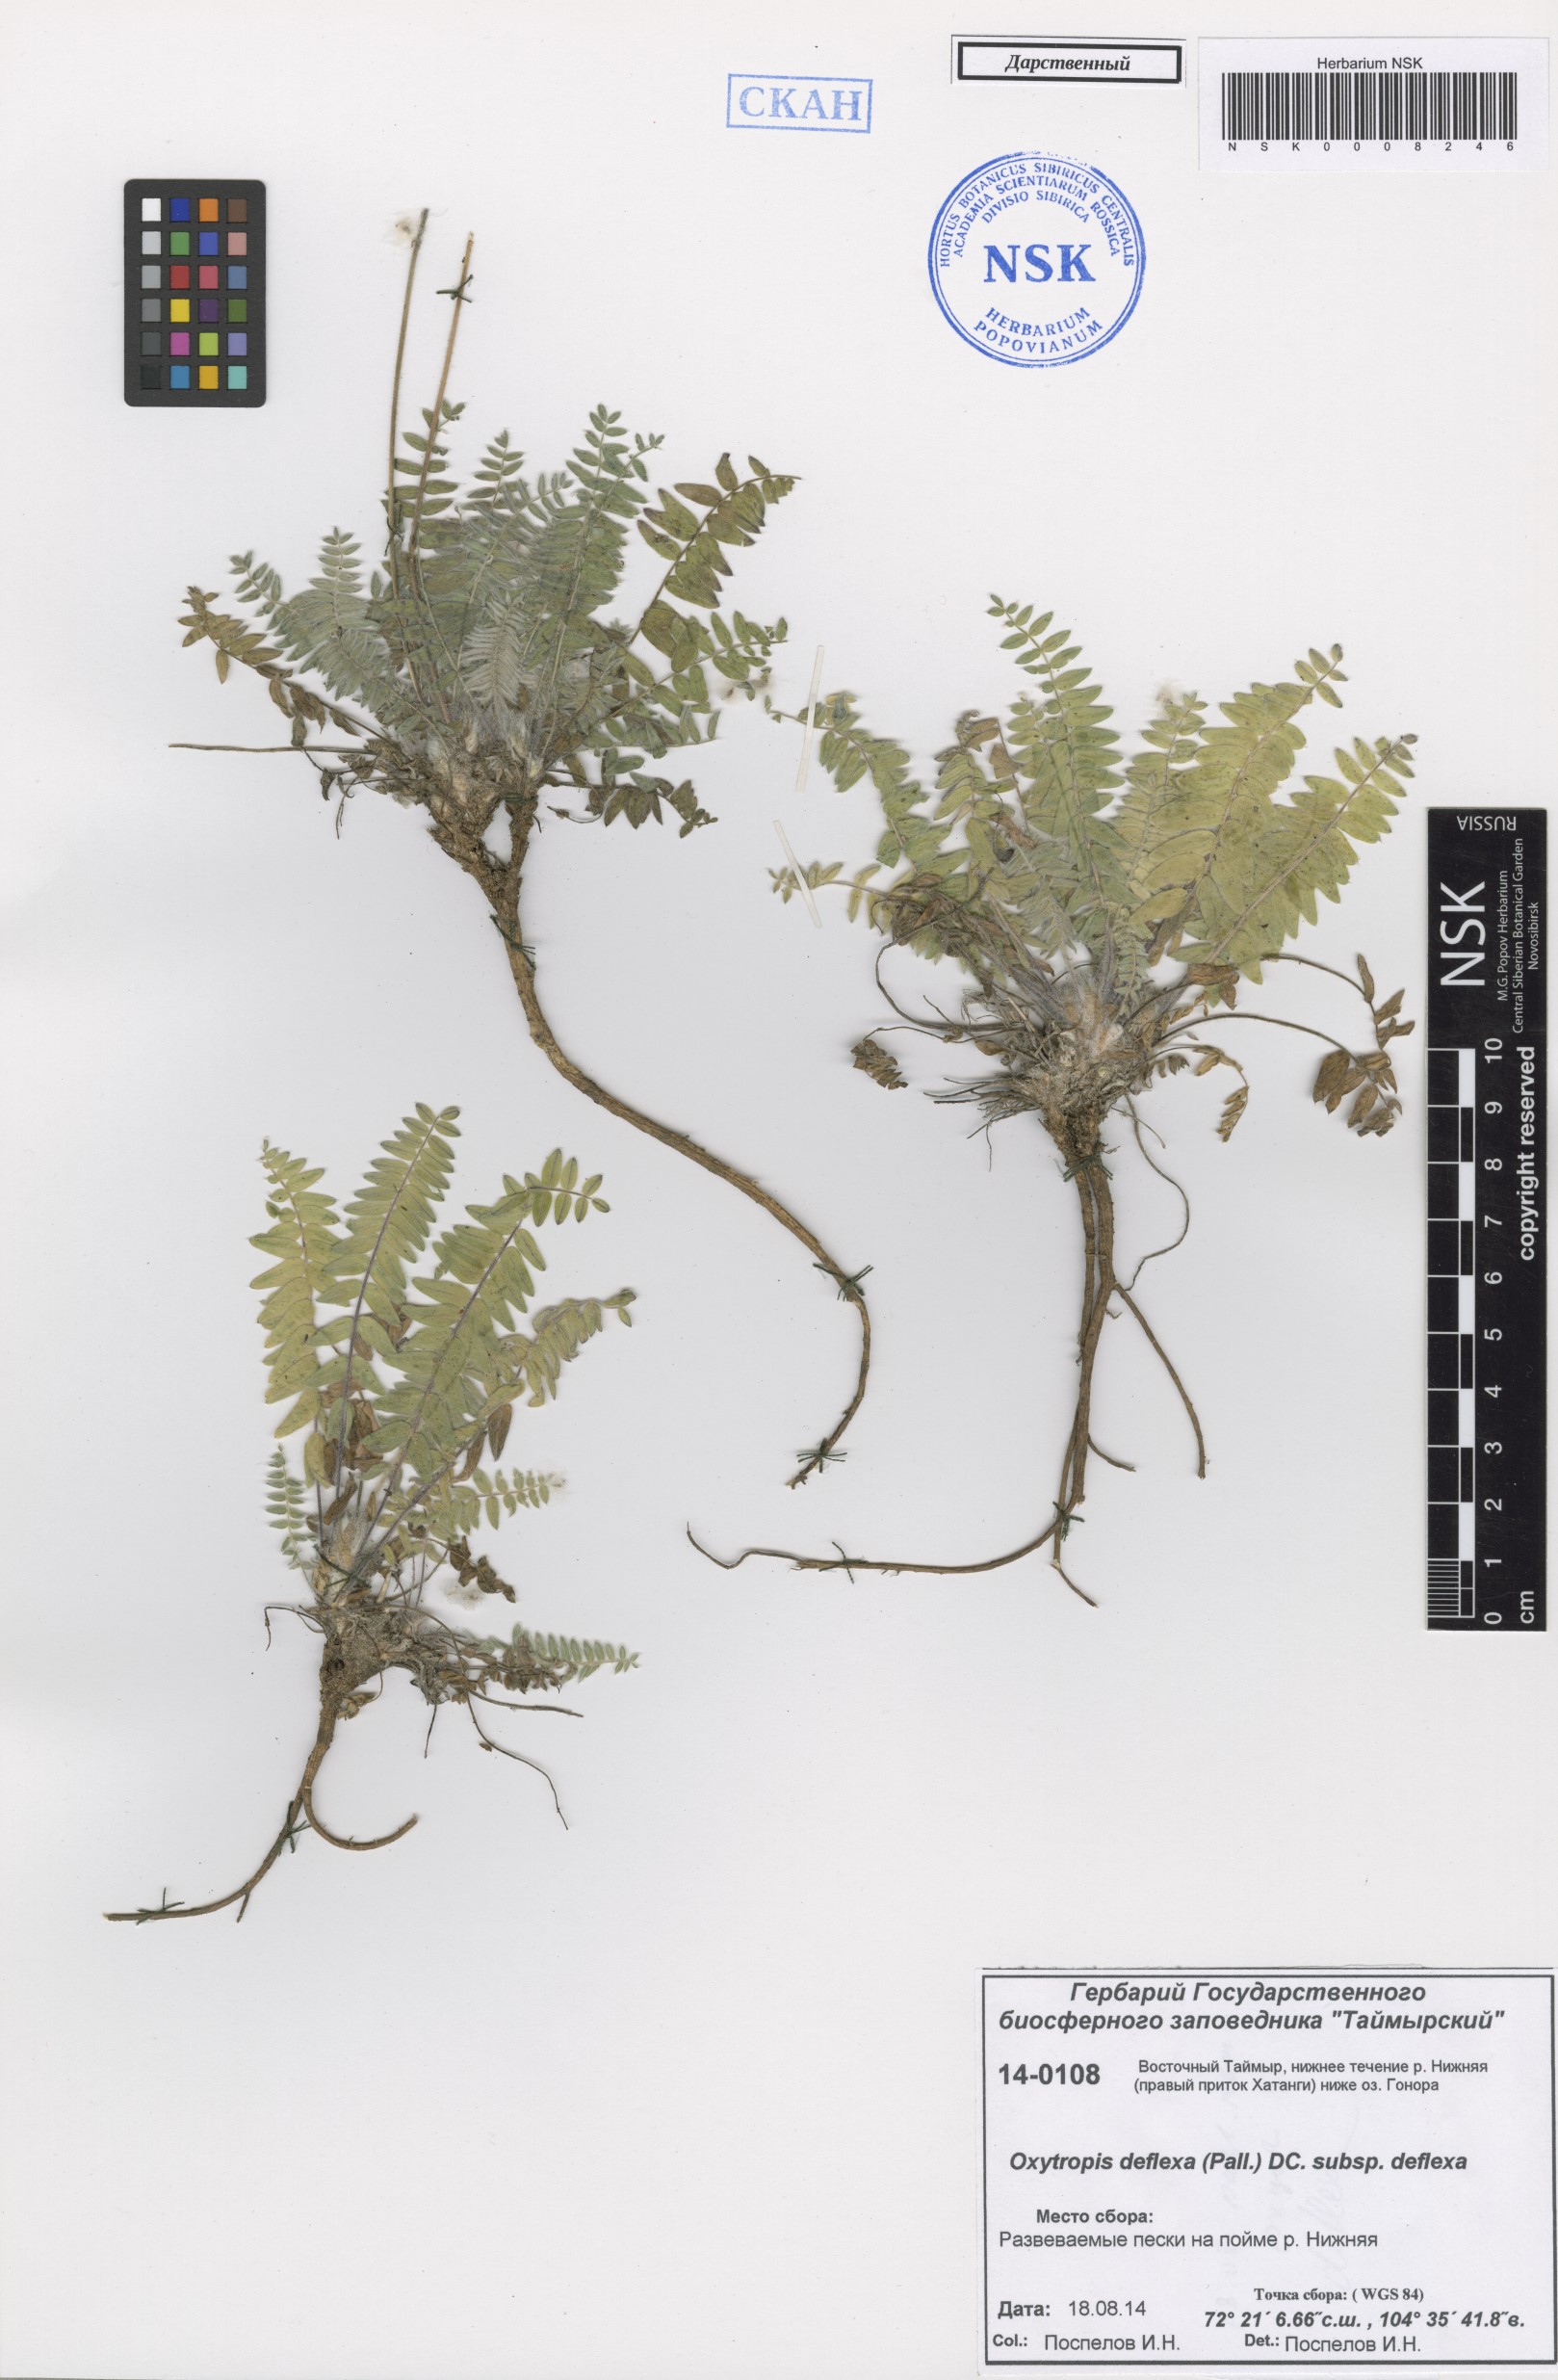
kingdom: Plantae
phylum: Tracheophyta
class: Magnoliopsida
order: Fabales
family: Fabaceae
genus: Oxytropis
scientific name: Oxytropis deflexa
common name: Stemmed oxytrope
